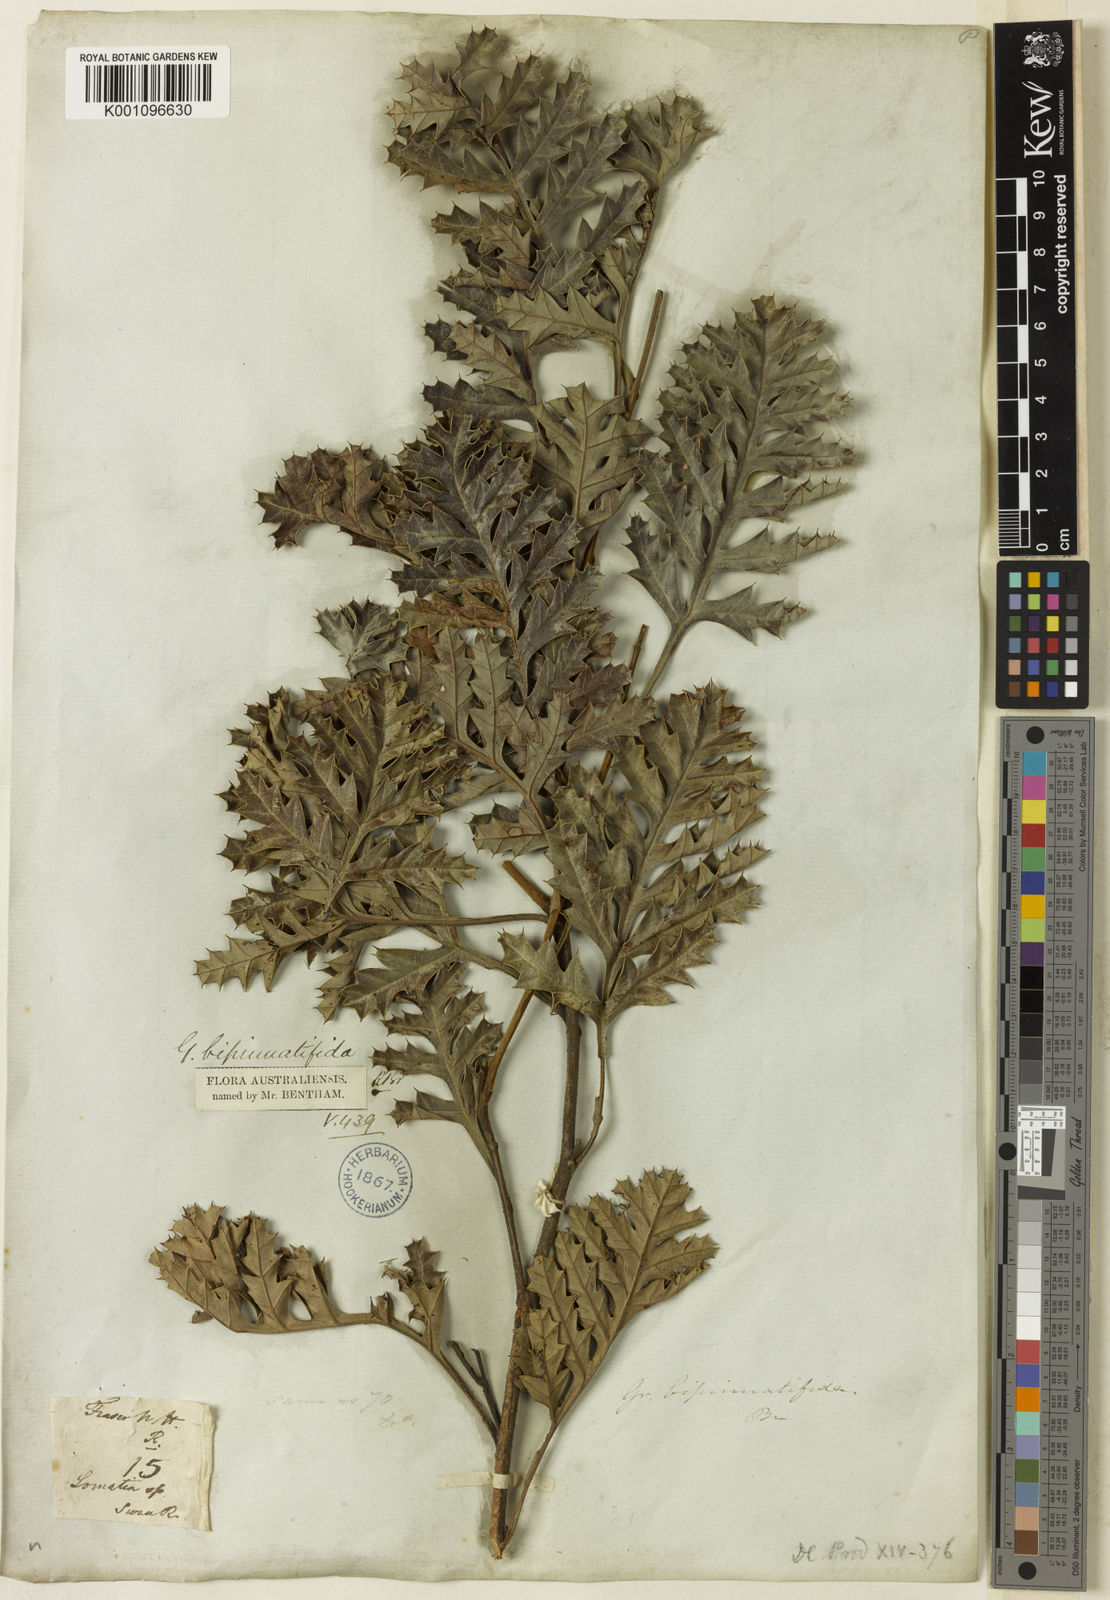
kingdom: Plantae
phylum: Tracheophyta
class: Magnoliopsida
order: Proteales
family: Proteaceae
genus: Grevillea
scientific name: Grevillea bipinnatifida
